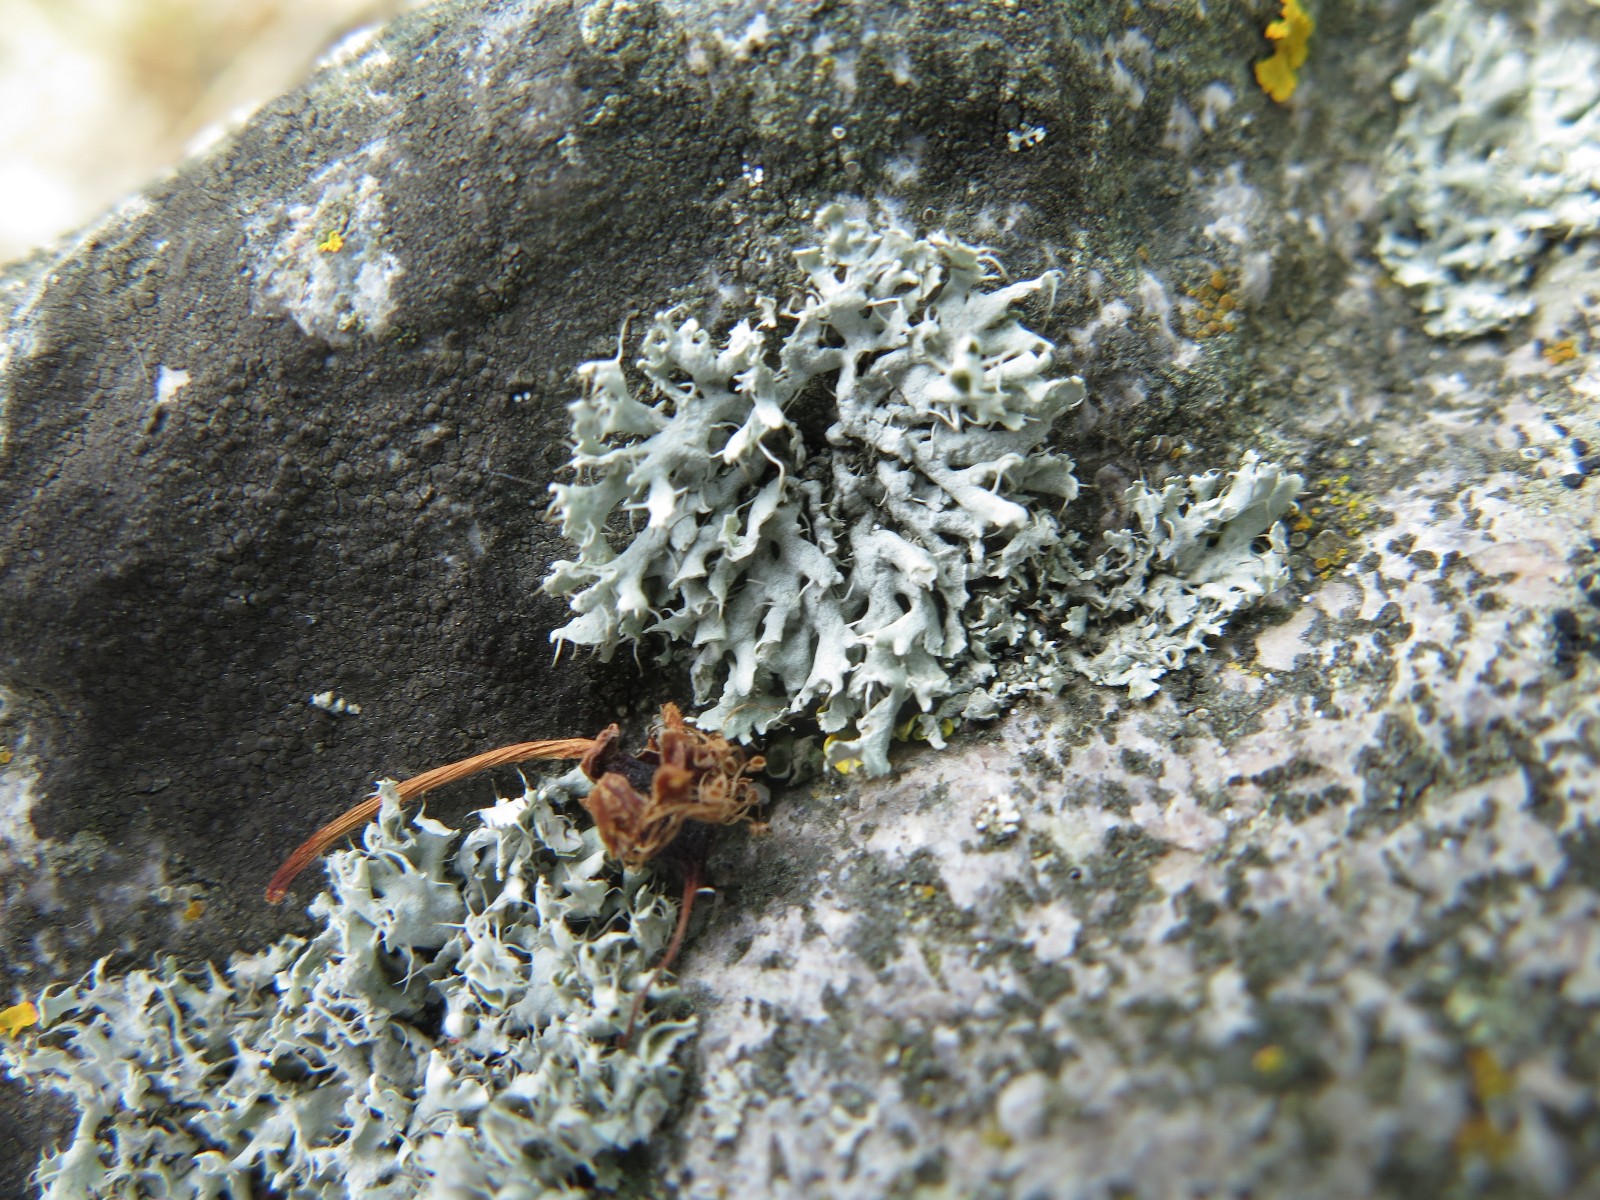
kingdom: Fungi
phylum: Ascomycota
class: Lecanoromycetes
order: Caliciales
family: Physciaceae
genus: Physcia
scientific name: Physcia adscendens
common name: hætte-rosetlav
